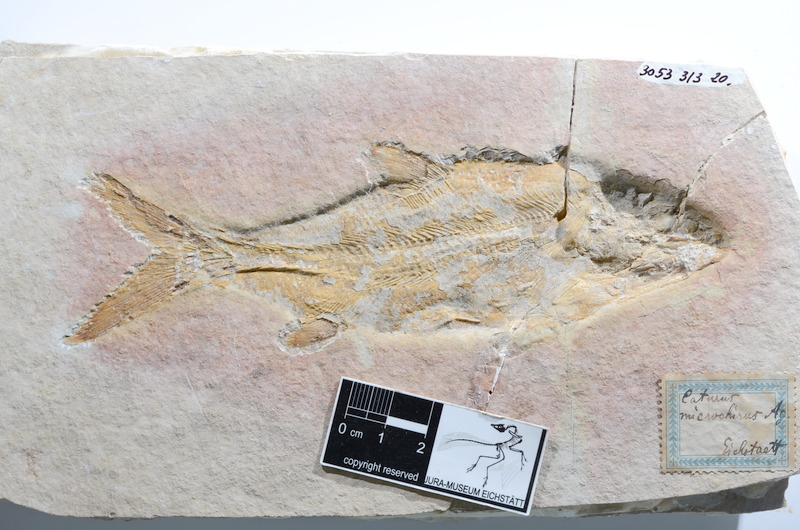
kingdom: Animalia
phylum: Chordata
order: Amiiformes
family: Caturidae
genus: Caturus
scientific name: Caturus furcatus
